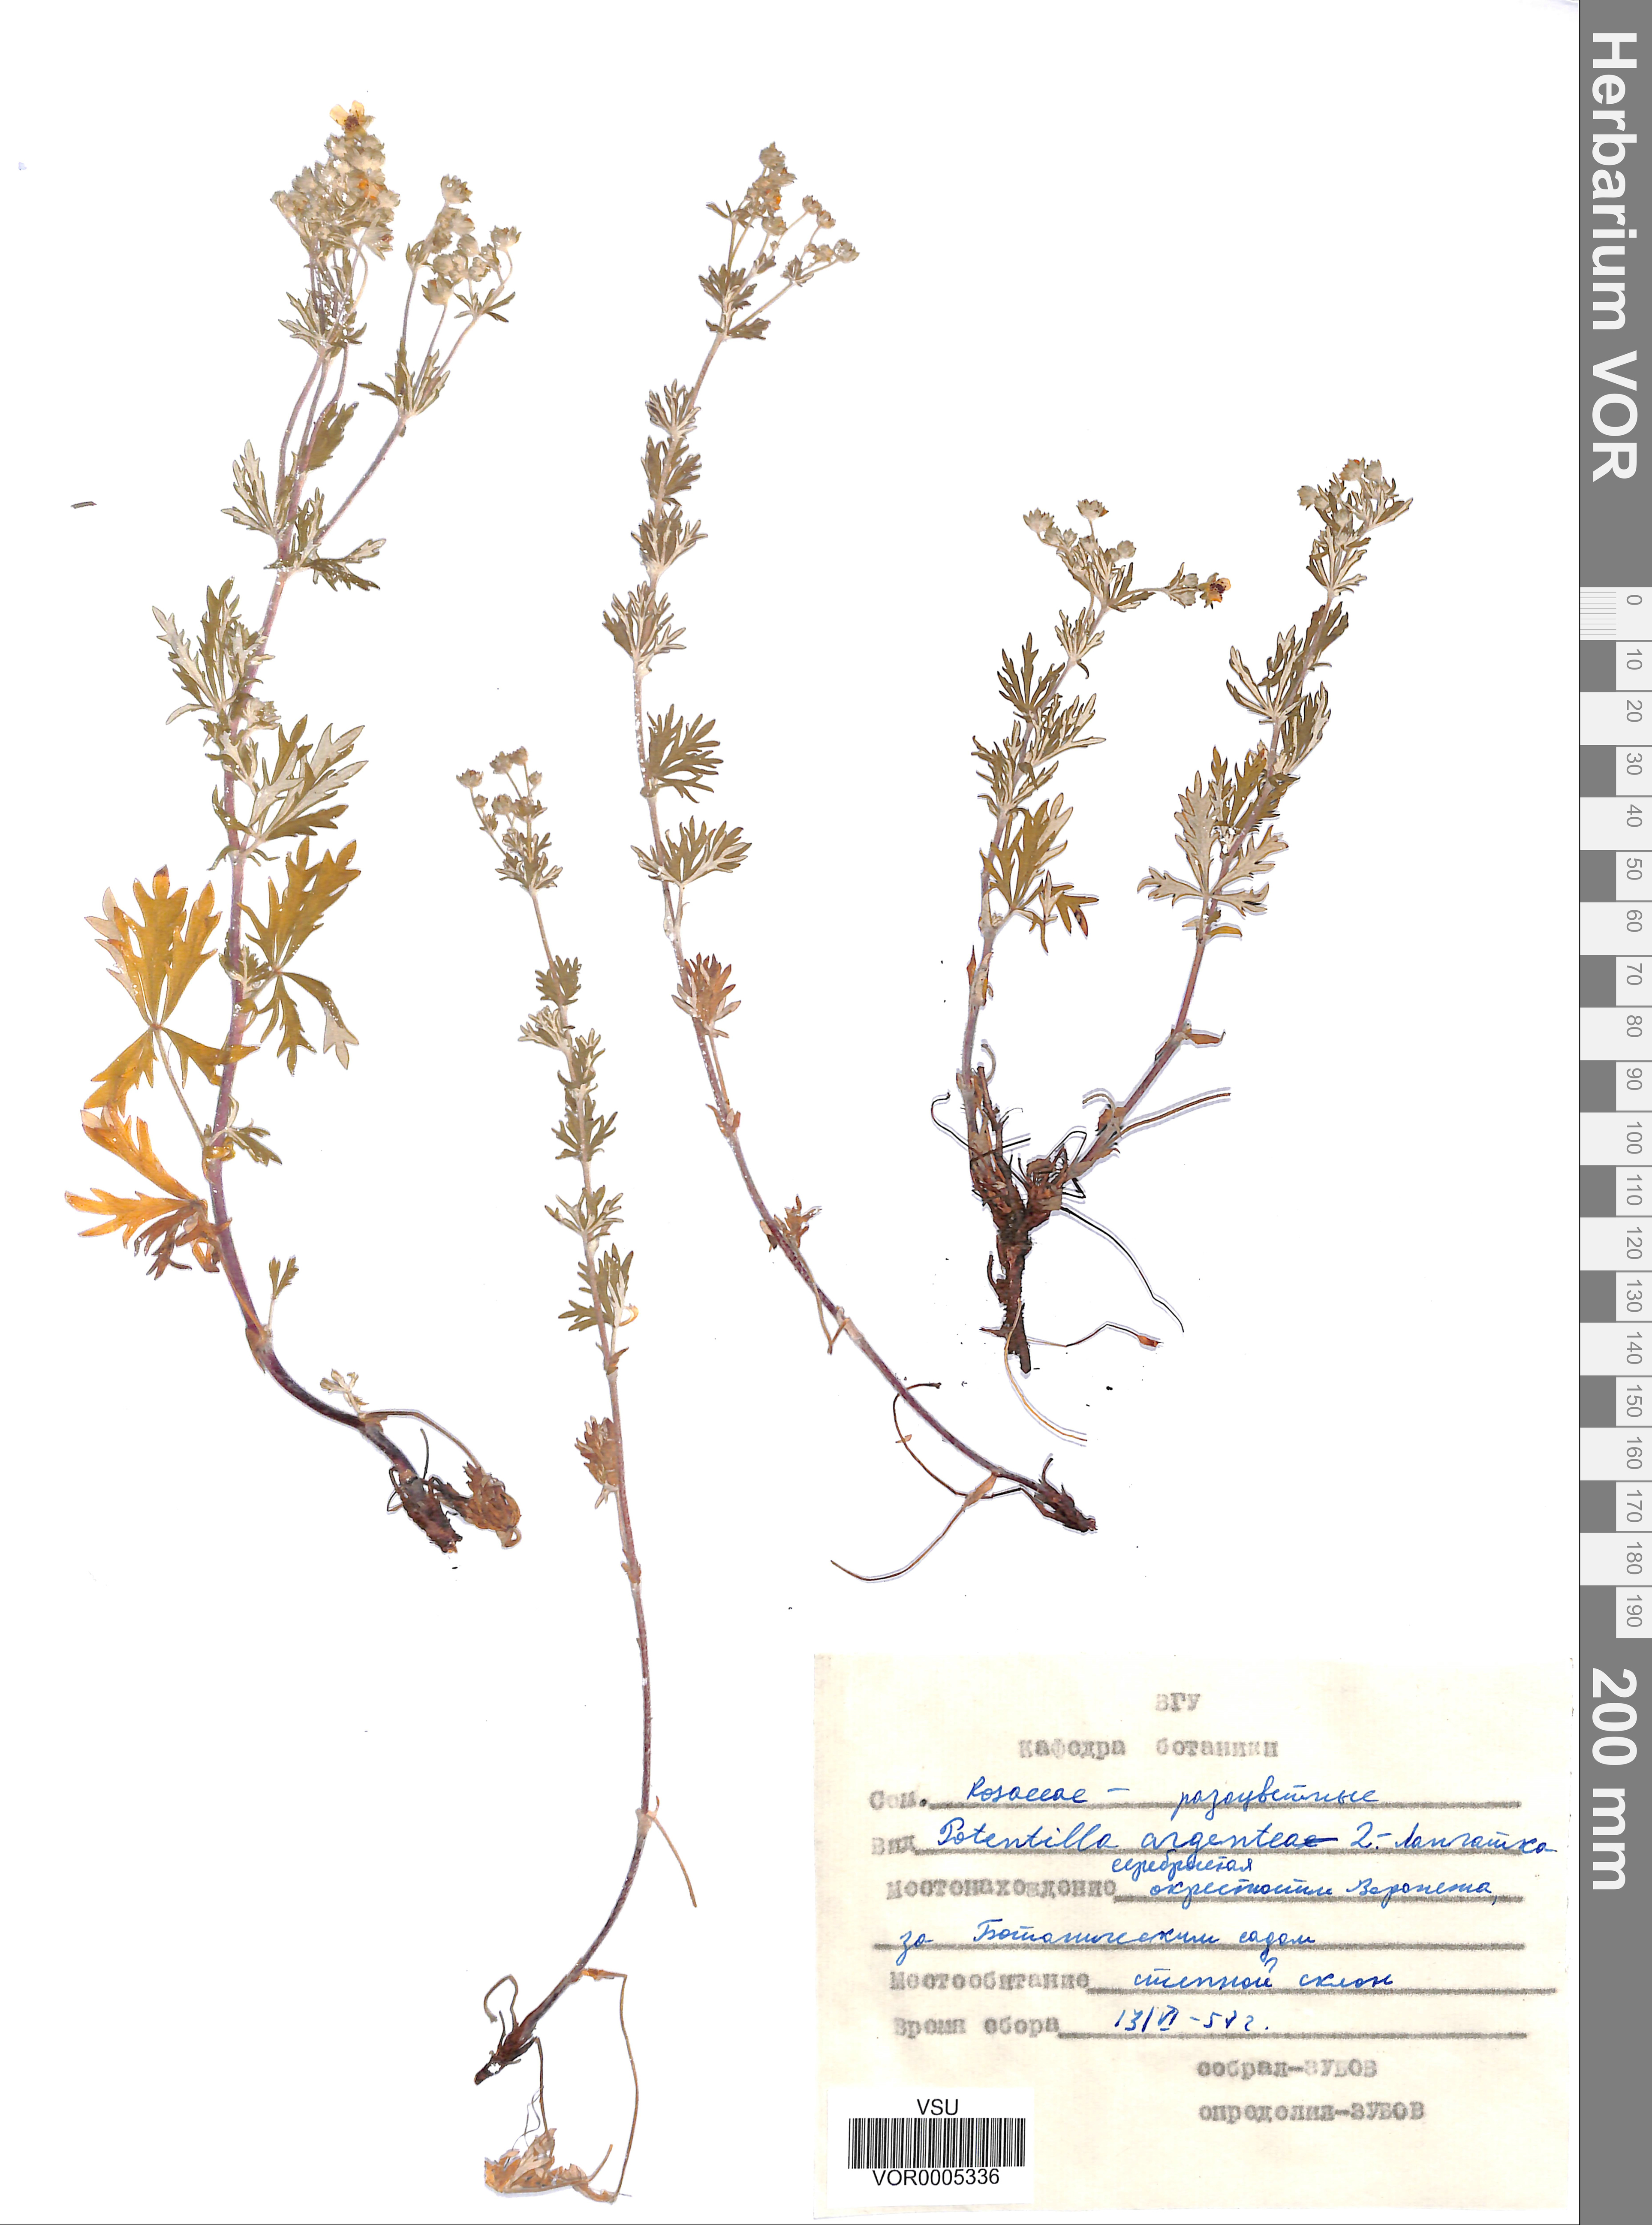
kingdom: Plantae
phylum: Tracheophyta
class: Magnoliopsida
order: Rosales
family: Rosaceae
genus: Potentilla
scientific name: Potentilla argentea
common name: Hoary cinquefoil
